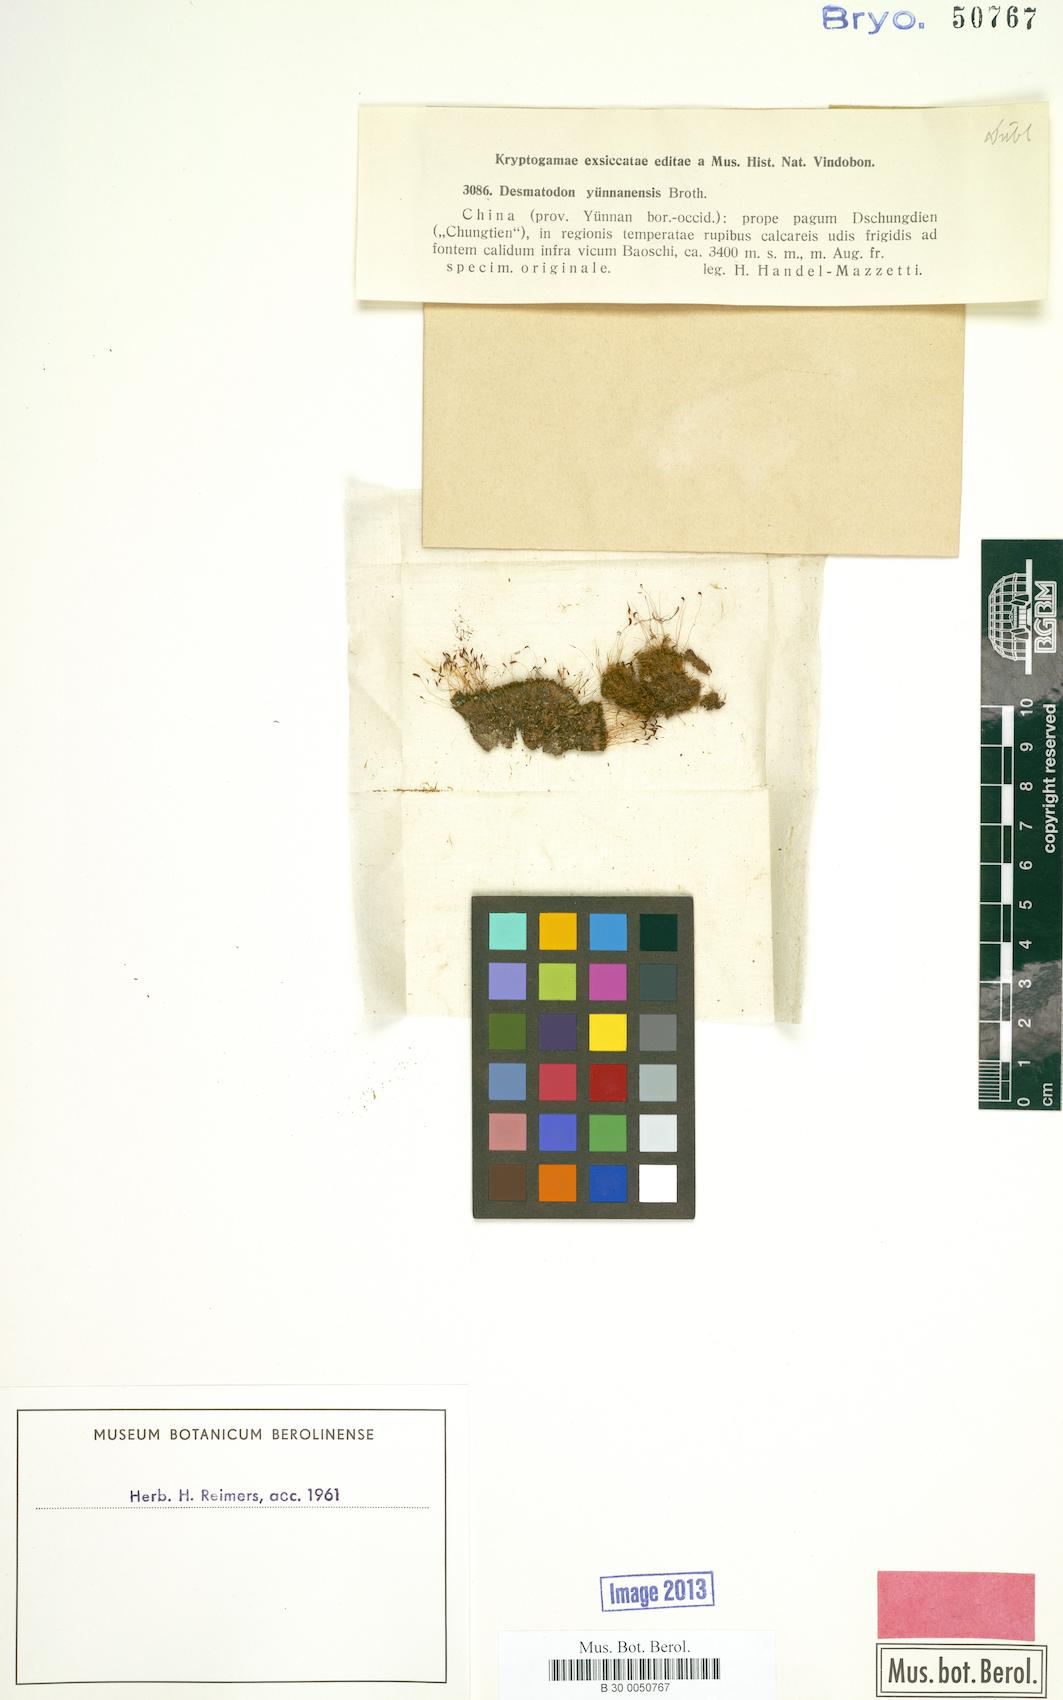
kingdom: Plantae
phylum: Bryophyta
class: Bryopsida
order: Pottiales
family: Pottiaceae
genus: Tortula
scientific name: Tortula chungtienia
